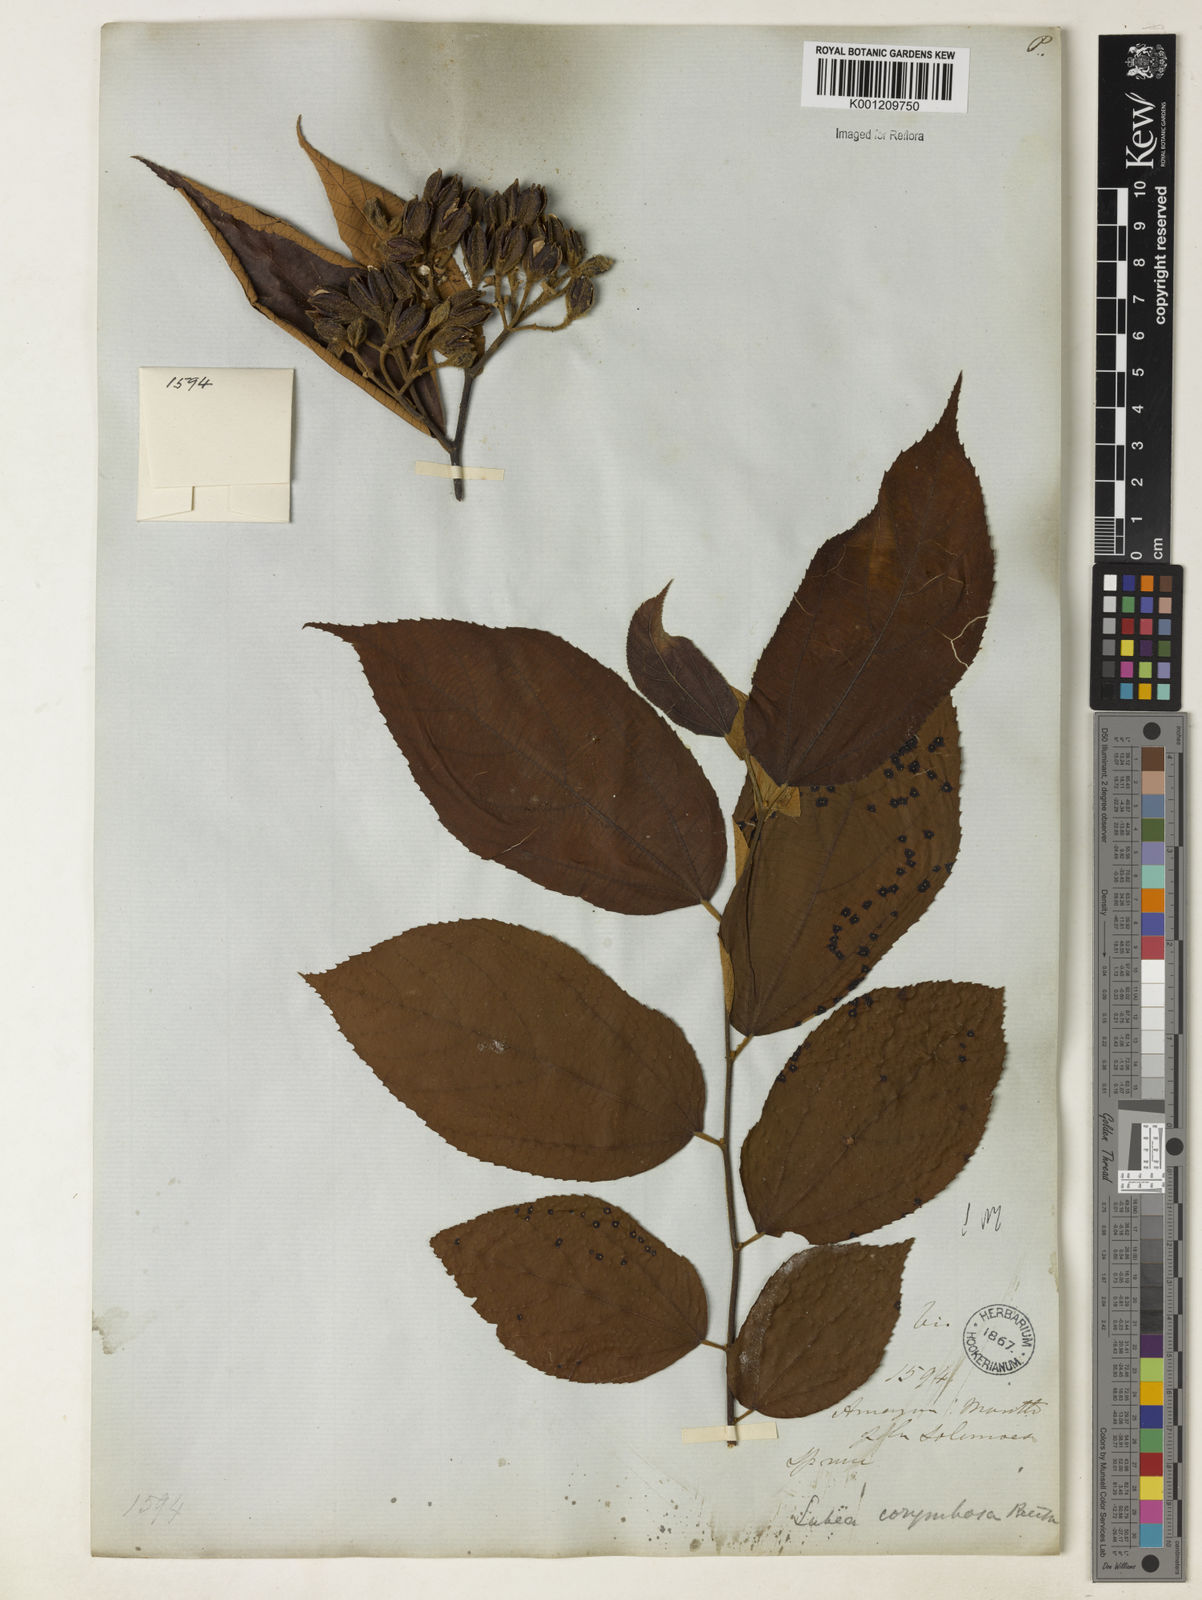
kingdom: Plantae
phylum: Tracheophyta
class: Magnoliopsida
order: Malvales
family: Malvaceae
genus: Luehea
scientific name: Luehea cymulosa
